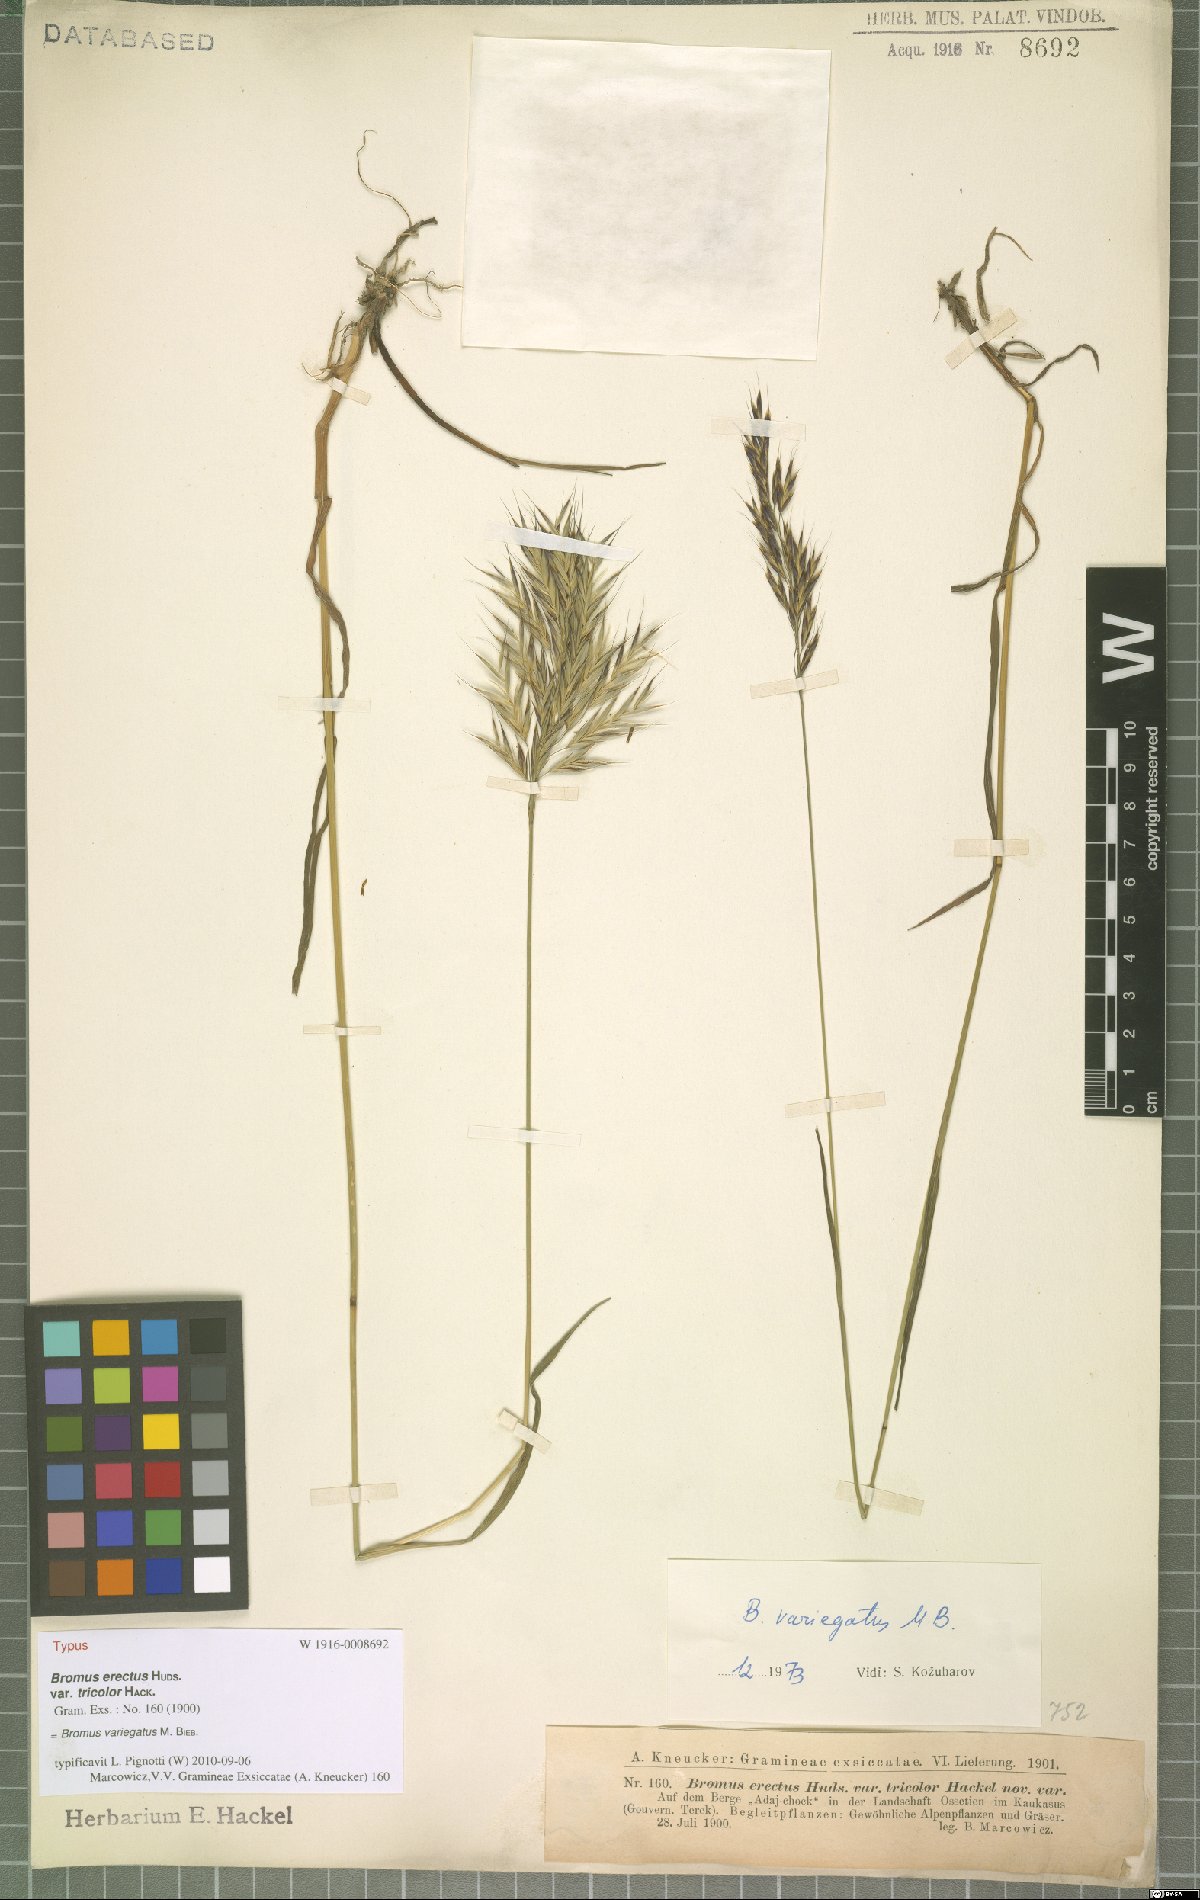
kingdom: Plantae
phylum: Tracheophyta
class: Liliopsida
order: Poales
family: Poaceae
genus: Bromus
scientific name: Bromus variegatus
